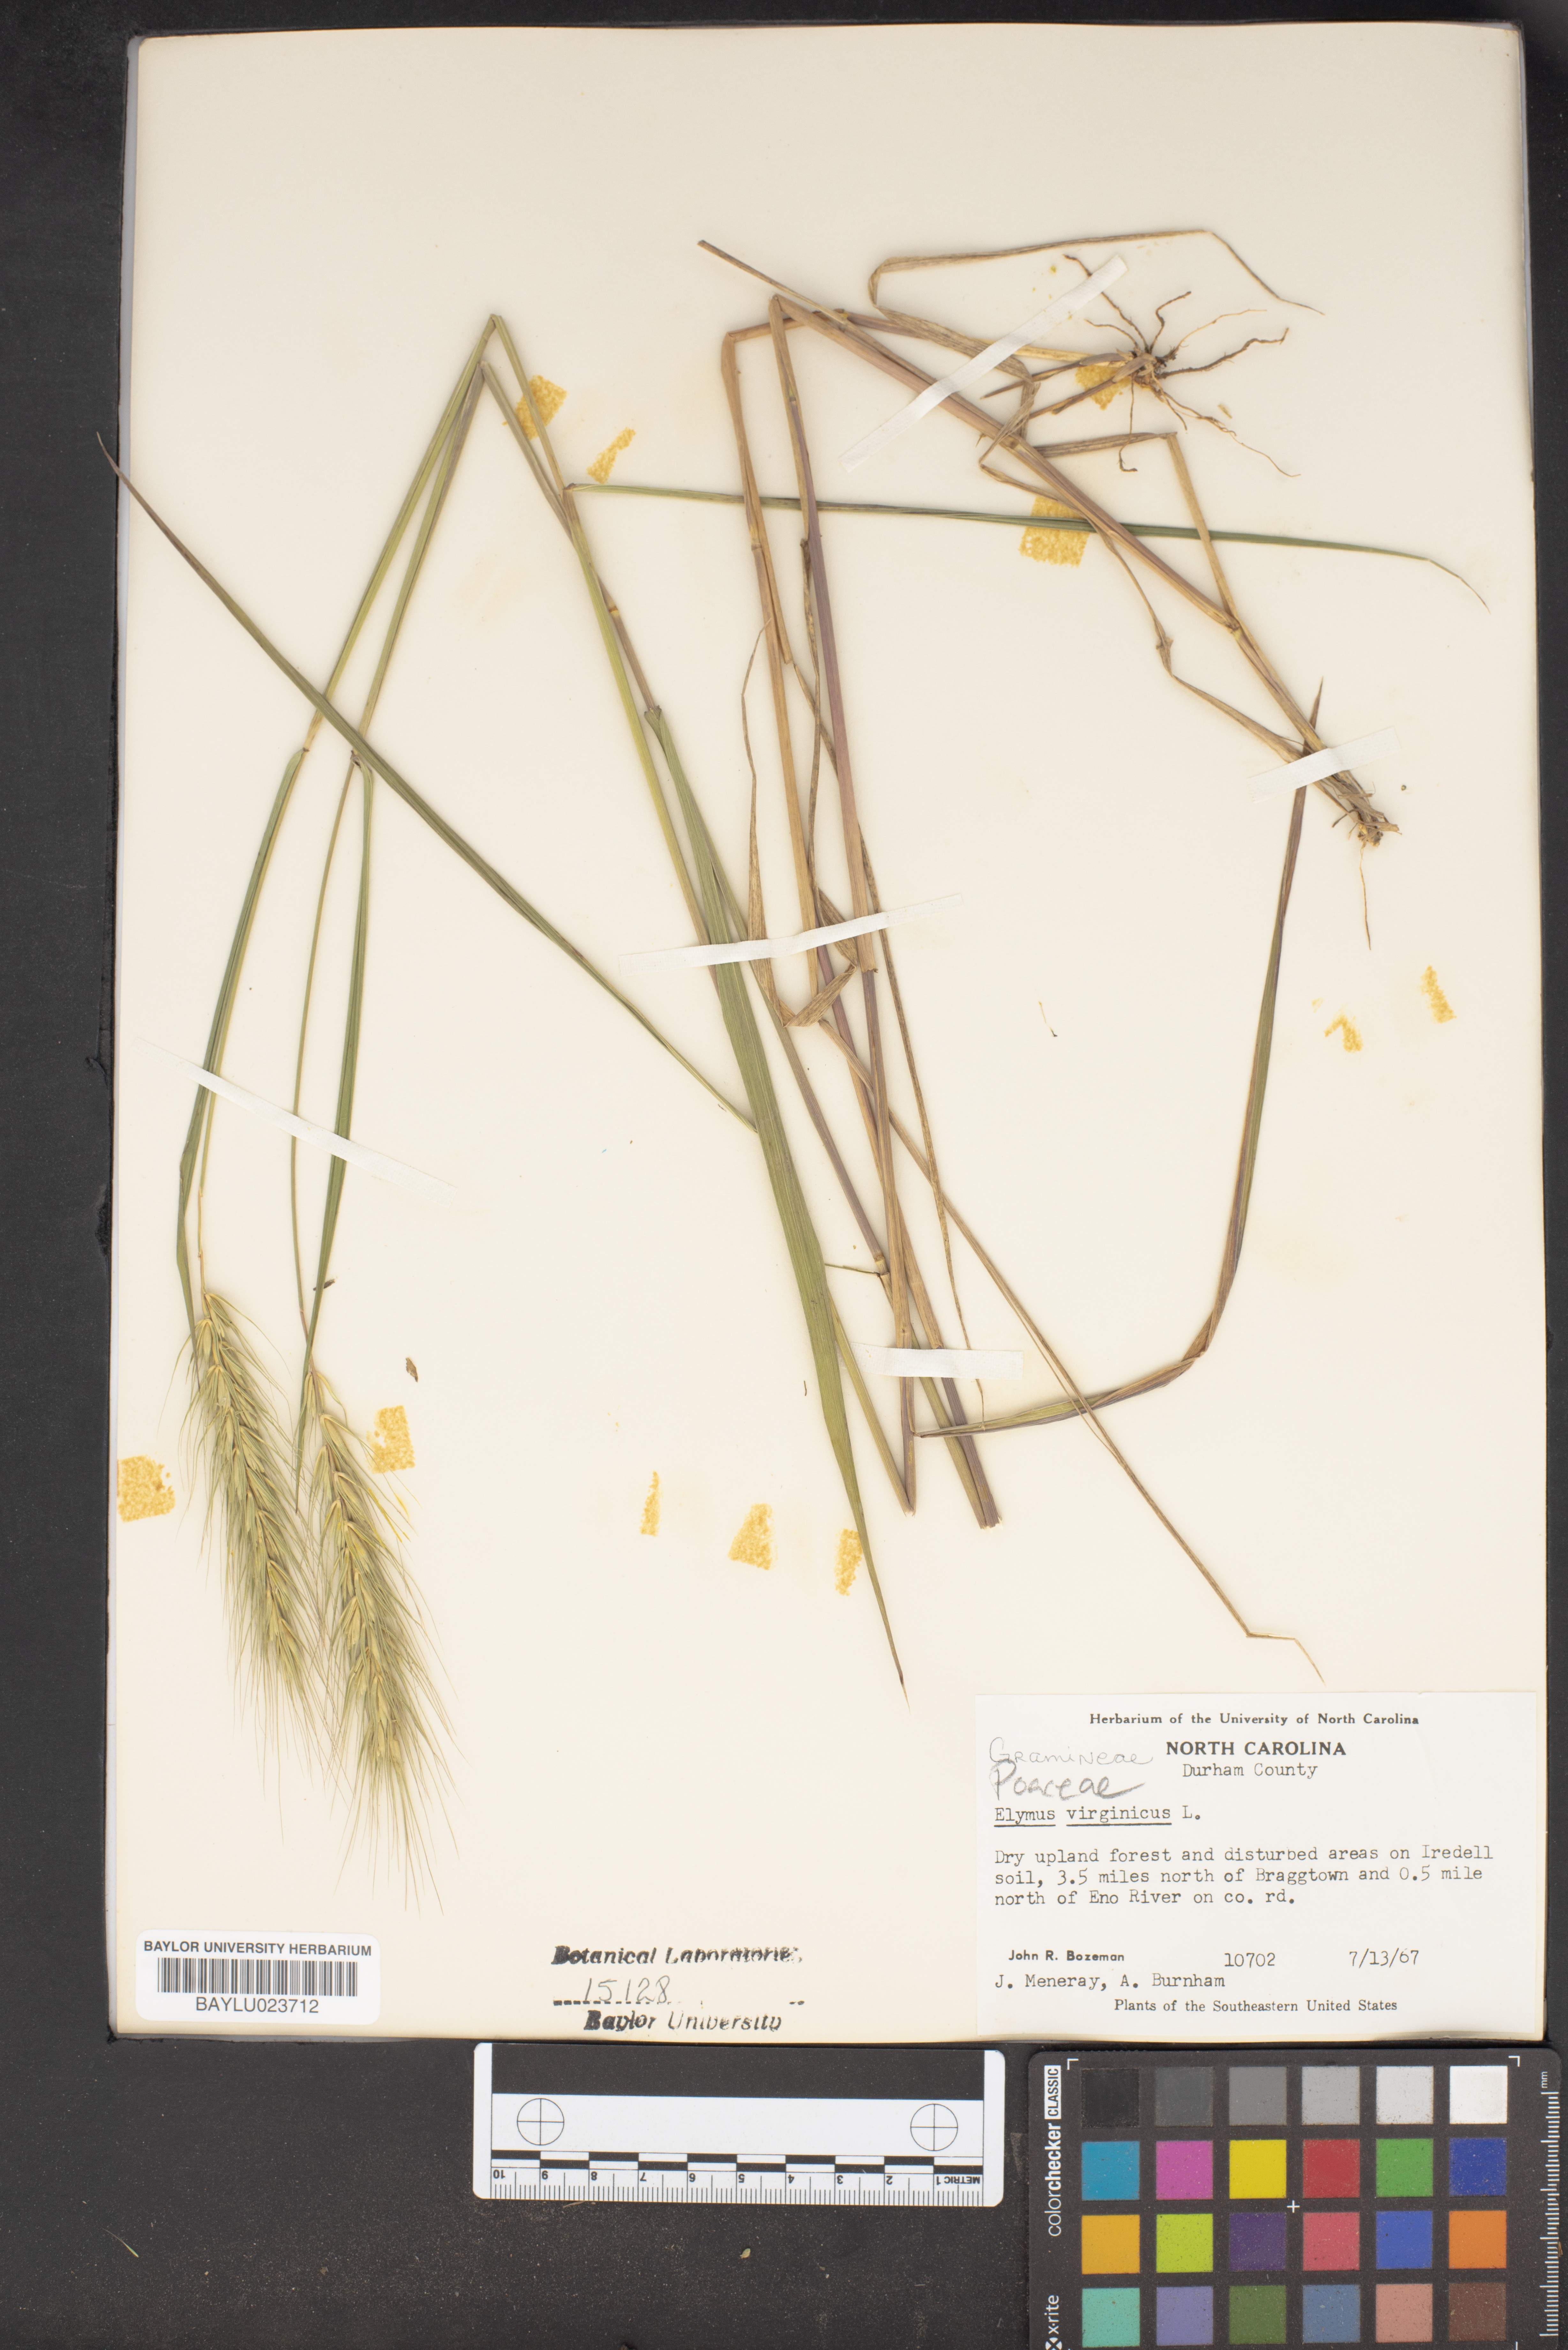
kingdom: Plantae
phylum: Tracheophyta
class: Liliopsida
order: Poales
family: Poaceae
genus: Elymus
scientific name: Elymus virginicus
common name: Common eastern wildrye
